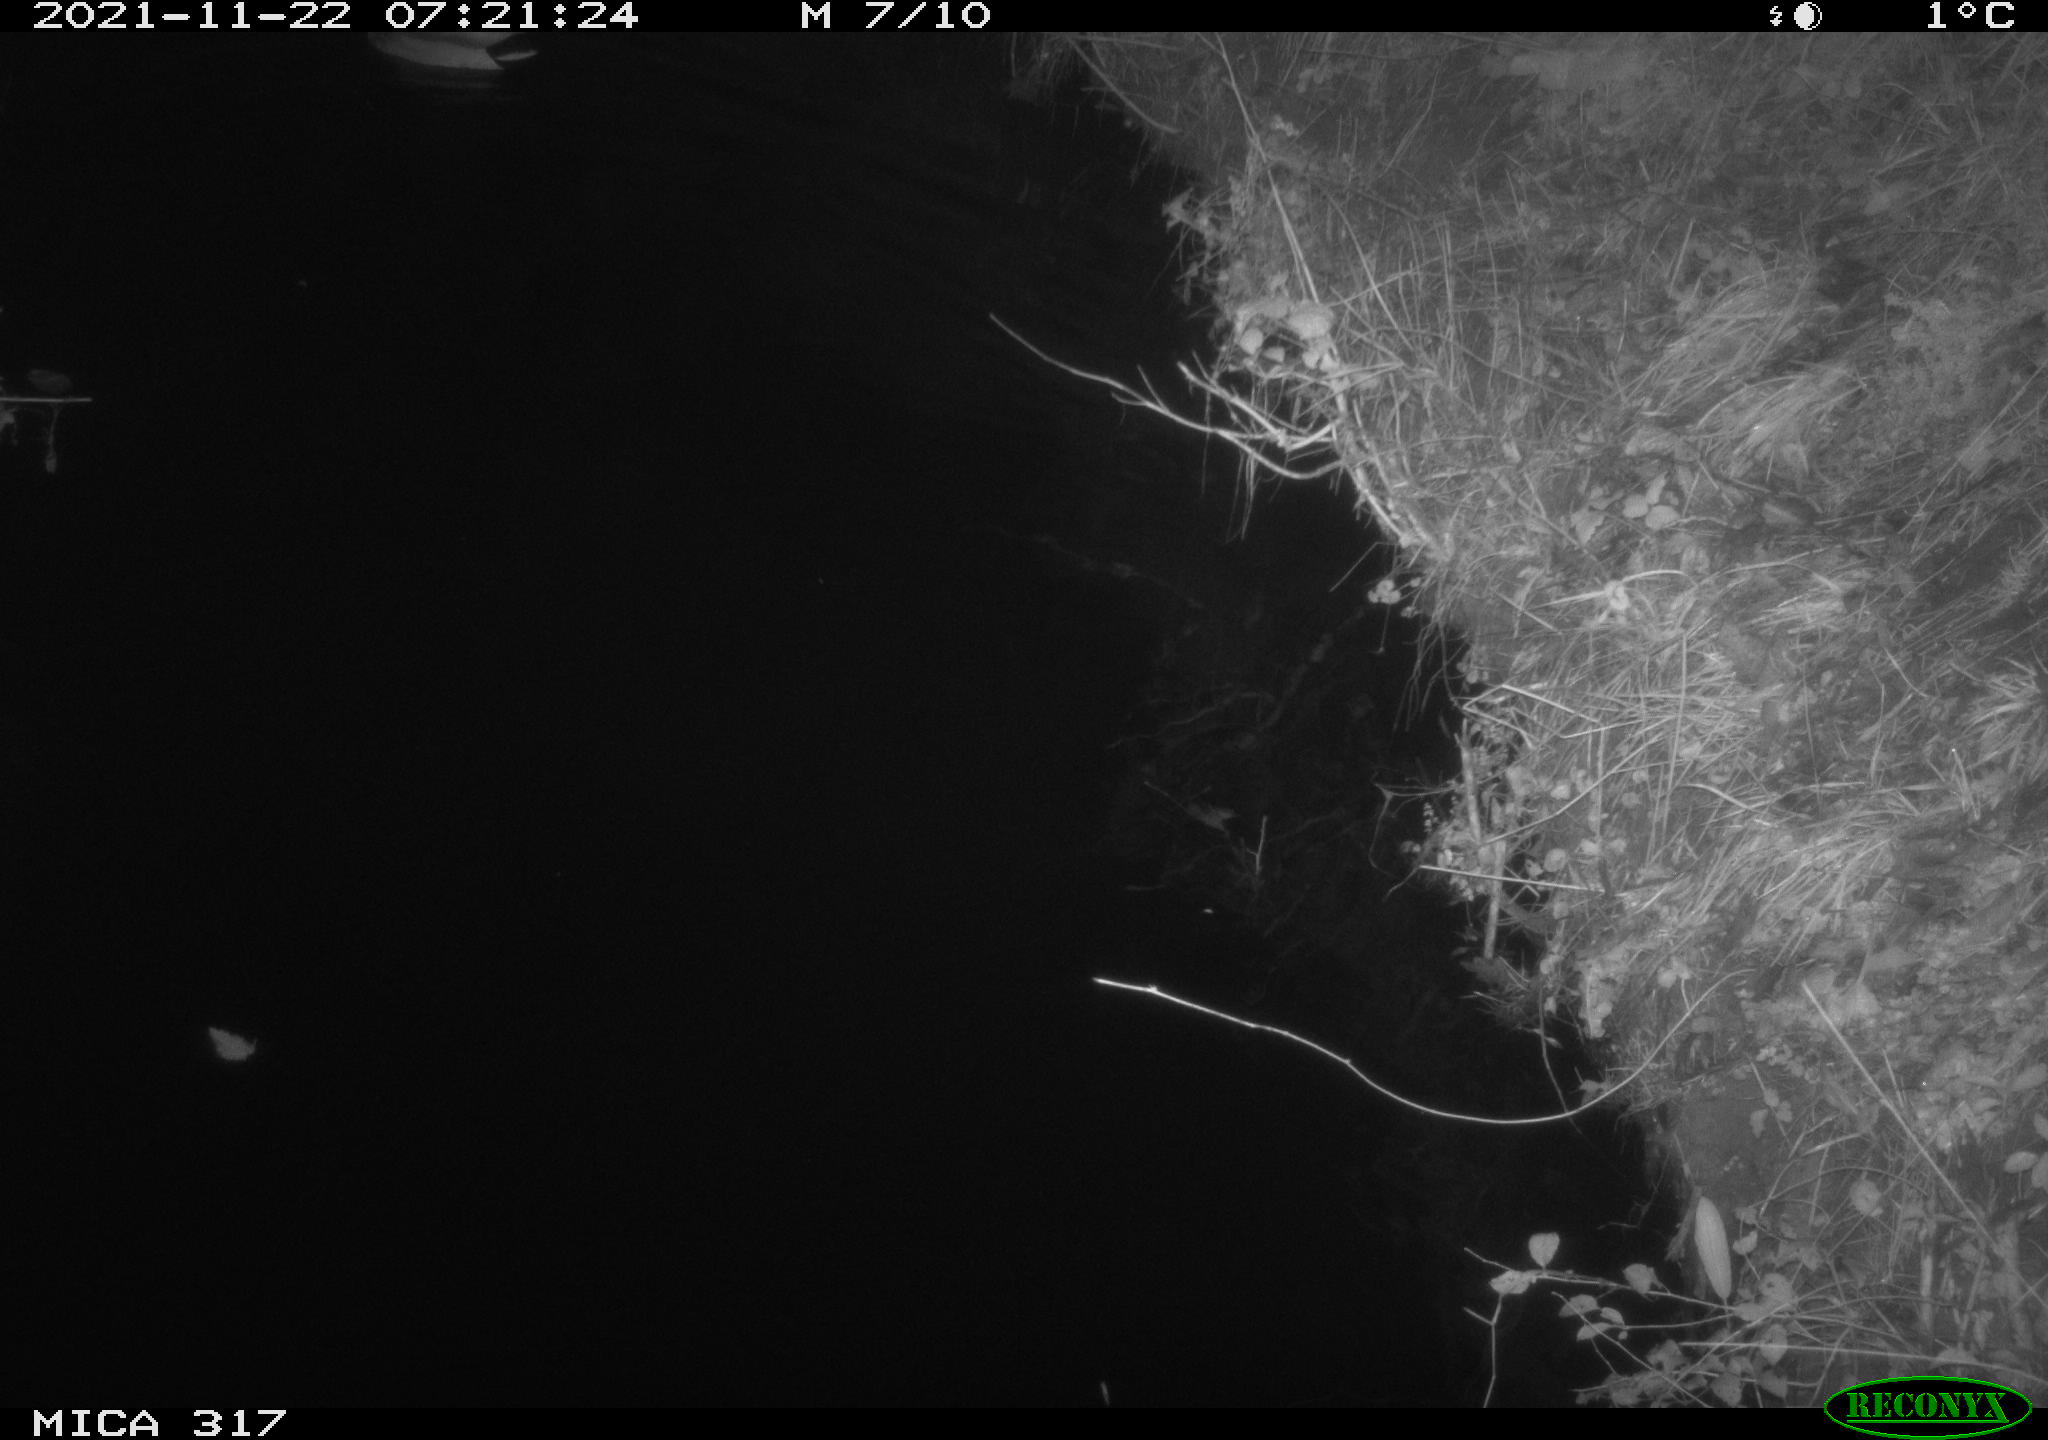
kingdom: Animalia
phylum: Chordata
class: Aves
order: Anseriformes
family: Anatidae
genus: Anas
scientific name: Anas platyrhynchos
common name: Mallard
